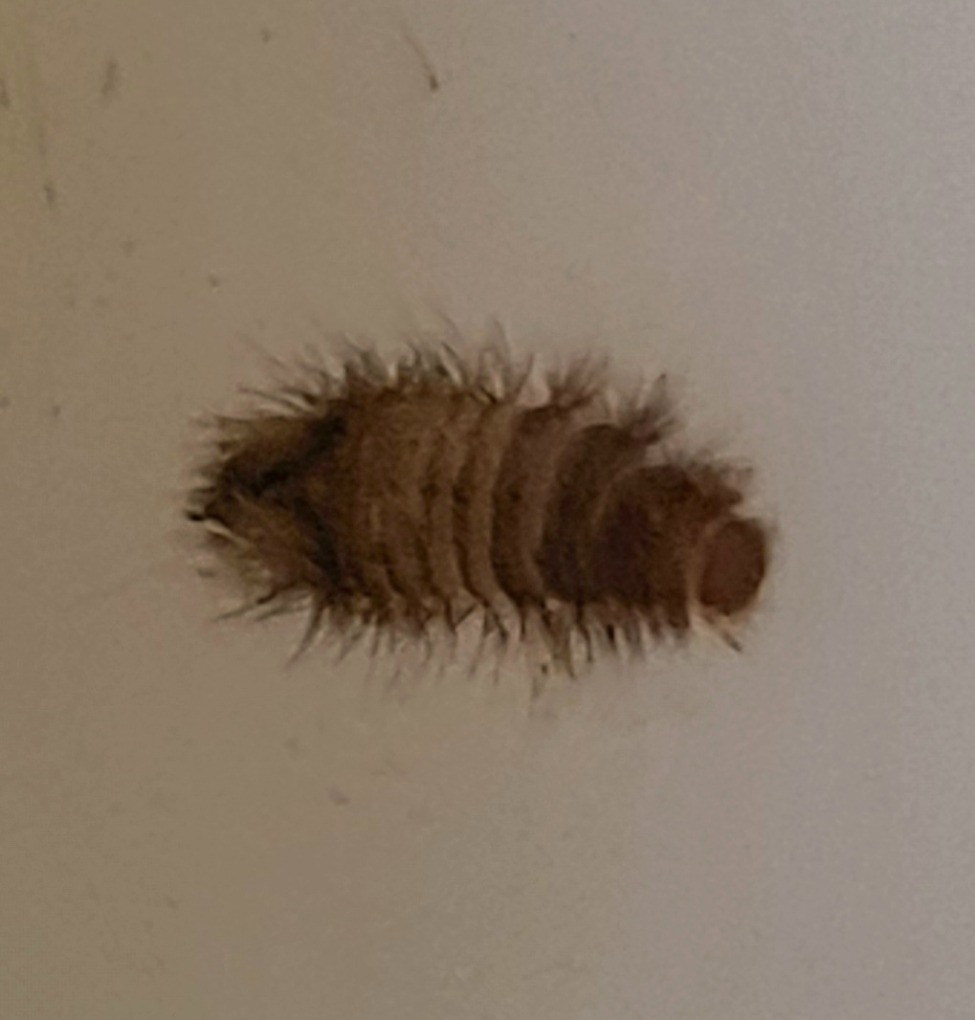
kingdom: Animalia
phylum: Arthropoda
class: Insecta
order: Coleoptera
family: Dermestidae
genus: Dermestes
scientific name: Dermestes lardarius
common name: Flæskeklanner
